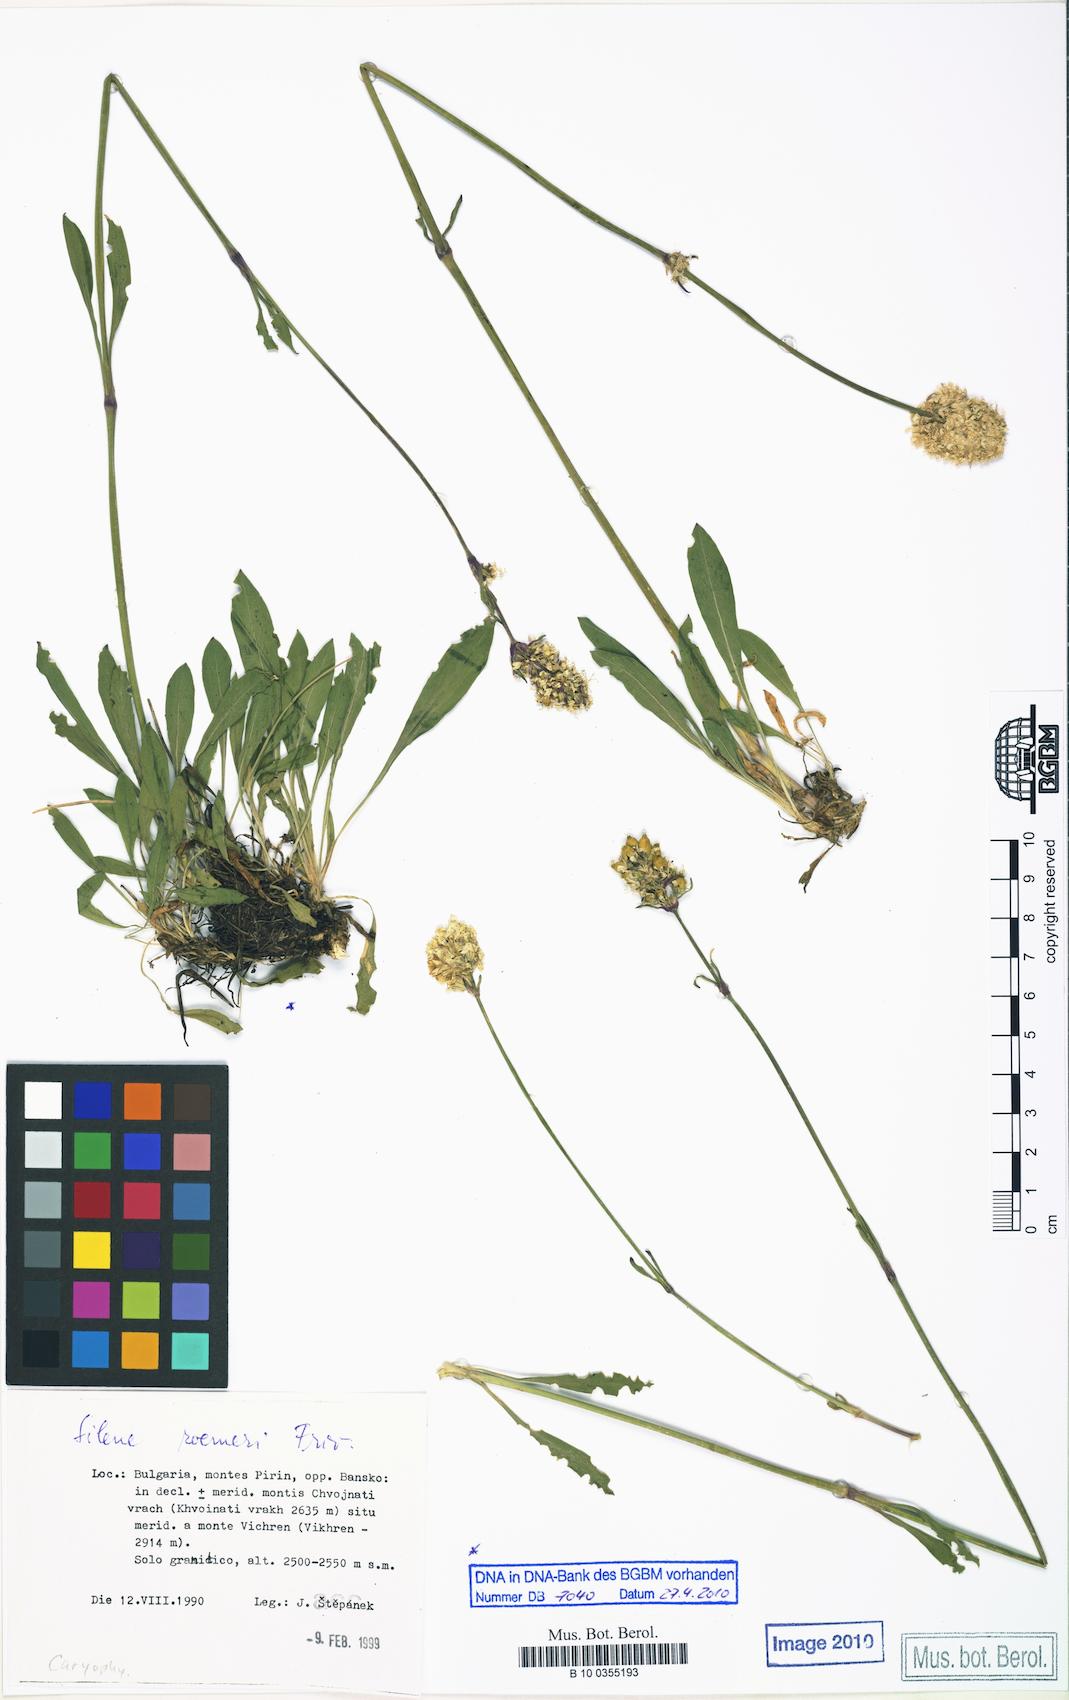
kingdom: Plantae
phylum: Tracheophyta
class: Magnoliopsida
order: Caryophyllales
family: Caryophyllaceae
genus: Silene
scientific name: Silene roemeri
